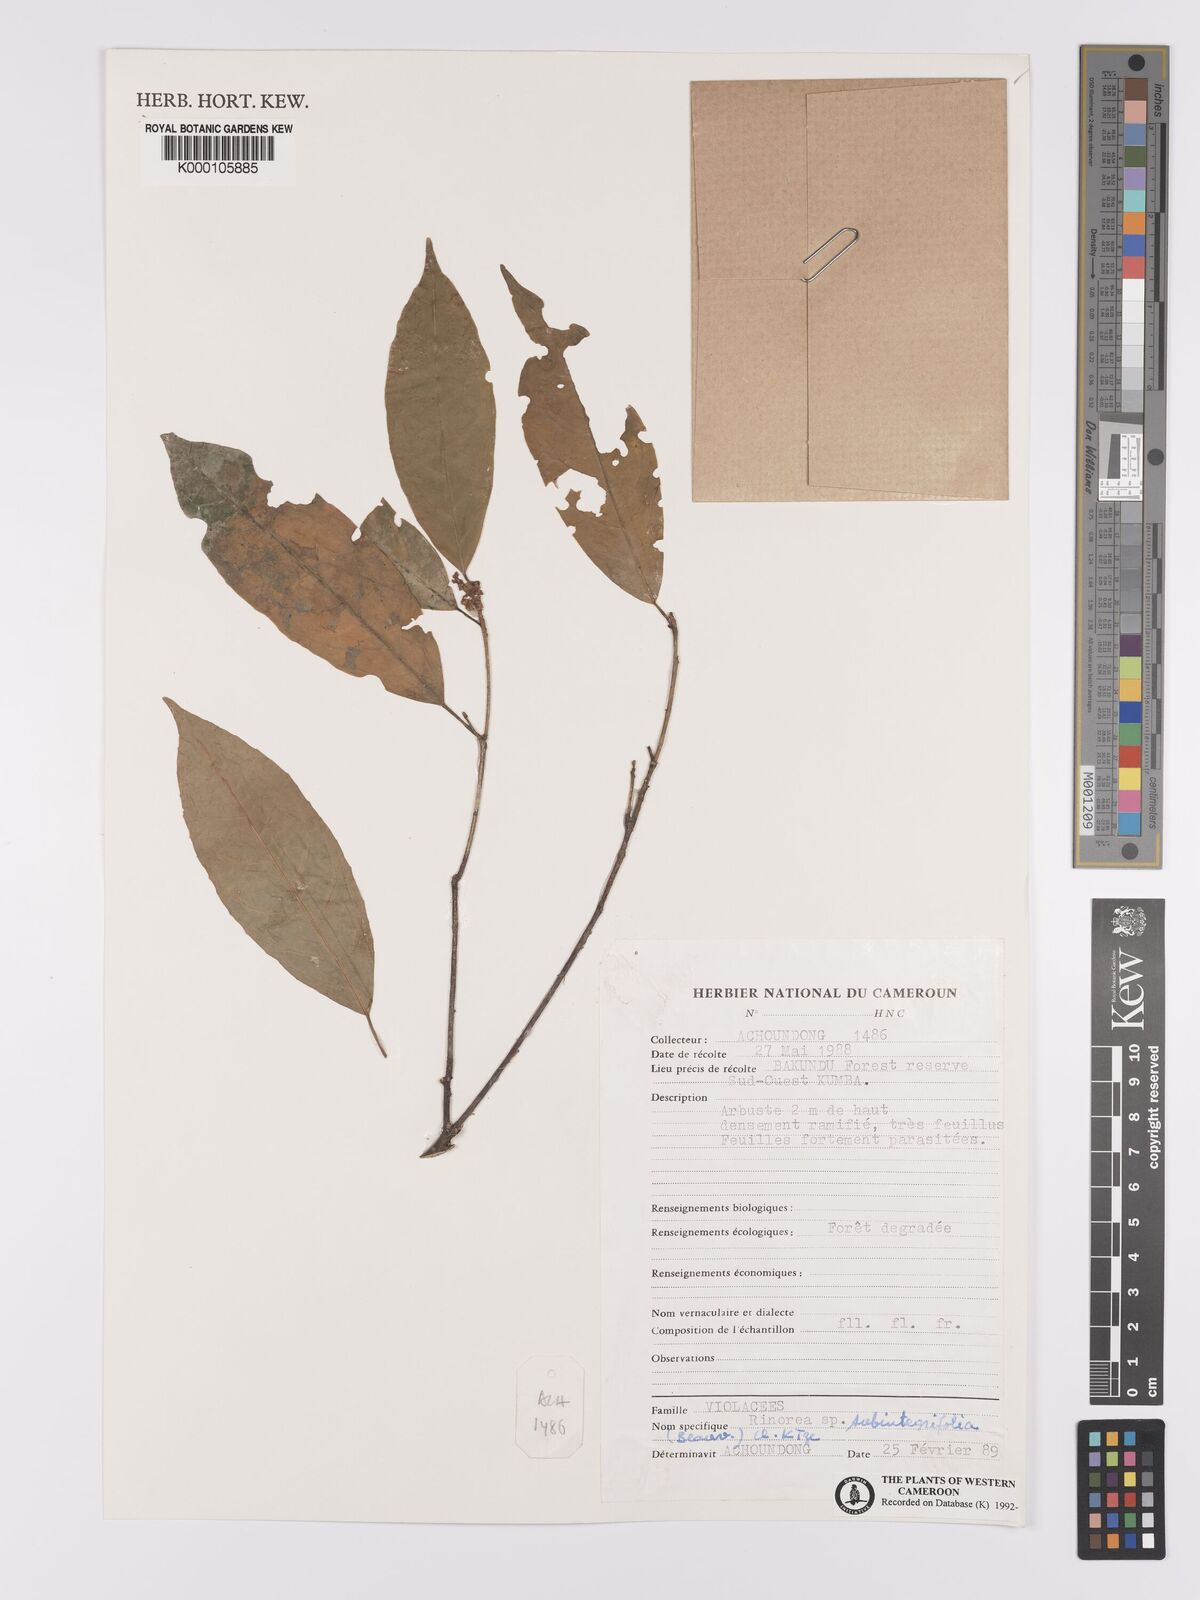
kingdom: Plantae
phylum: Tracheophyta
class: Magnoliopsida
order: Malpighiales
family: Violaceae
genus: Rinorea
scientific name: Rinorea subintegrifolia
